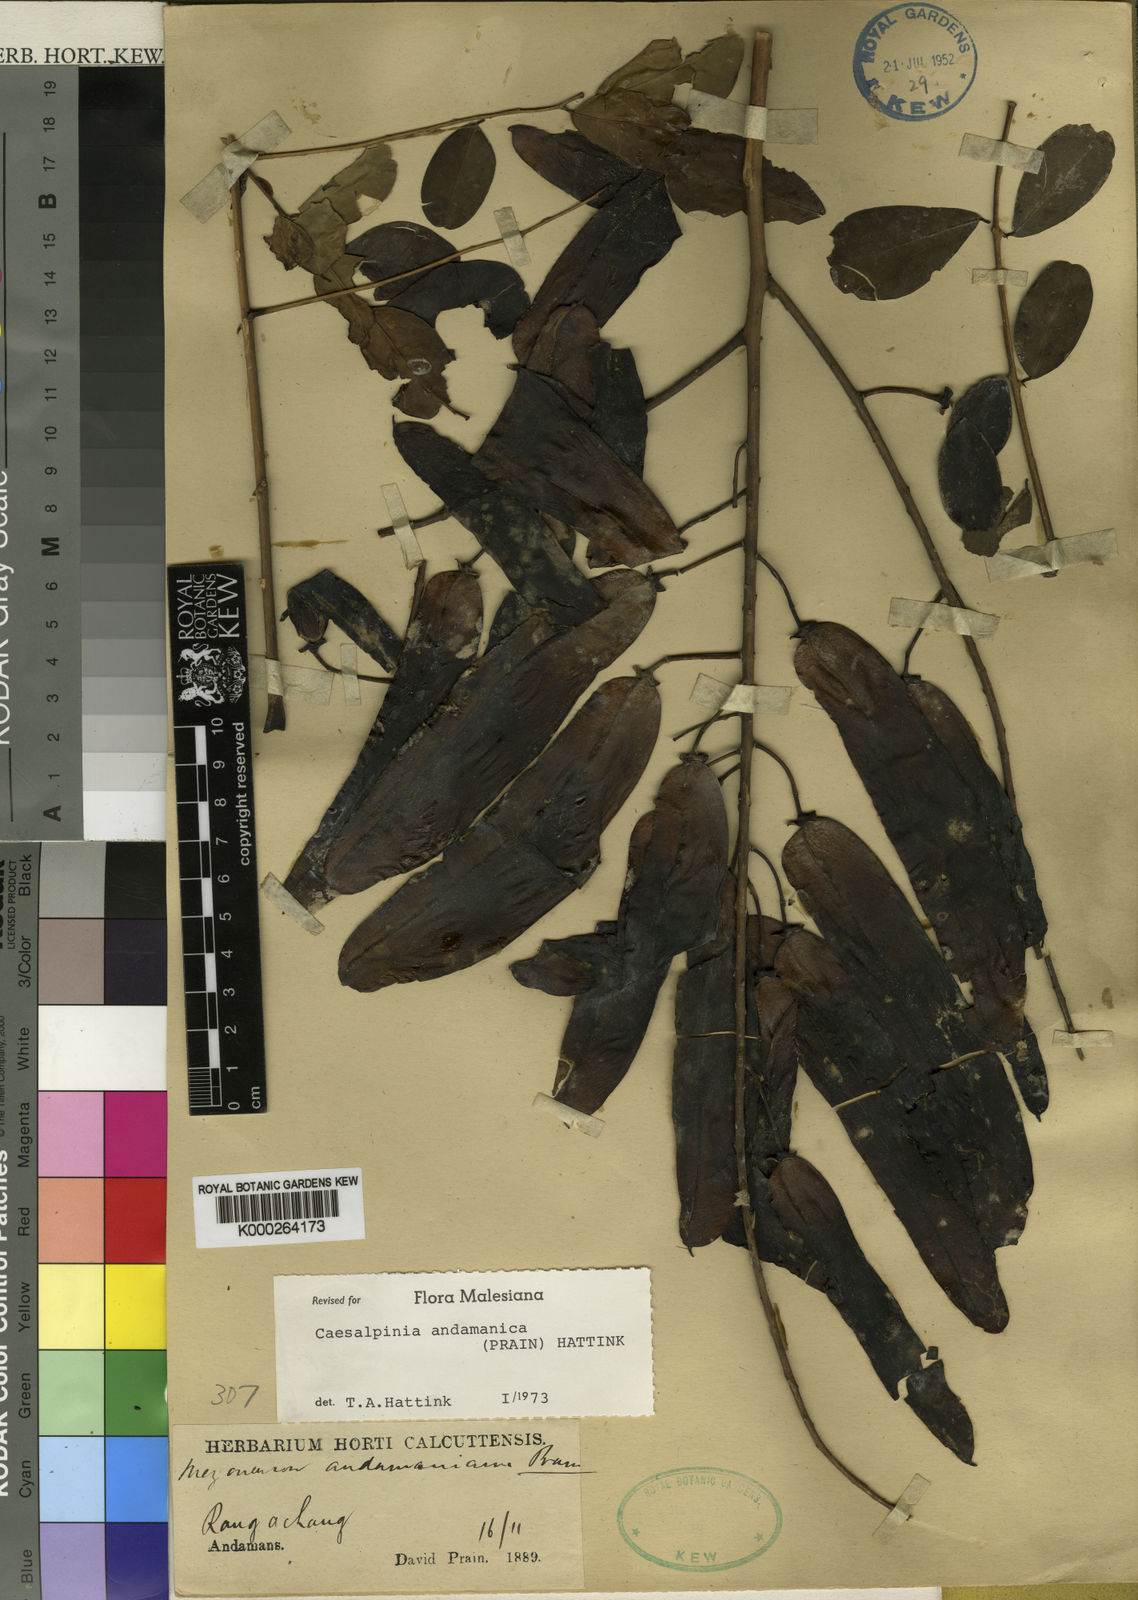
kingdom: Plantae
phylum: Tracheophyta
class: Magnoliopsida
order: Fabales
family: Fabaceae
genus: Mezoneuron
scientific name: Mezoneuron
